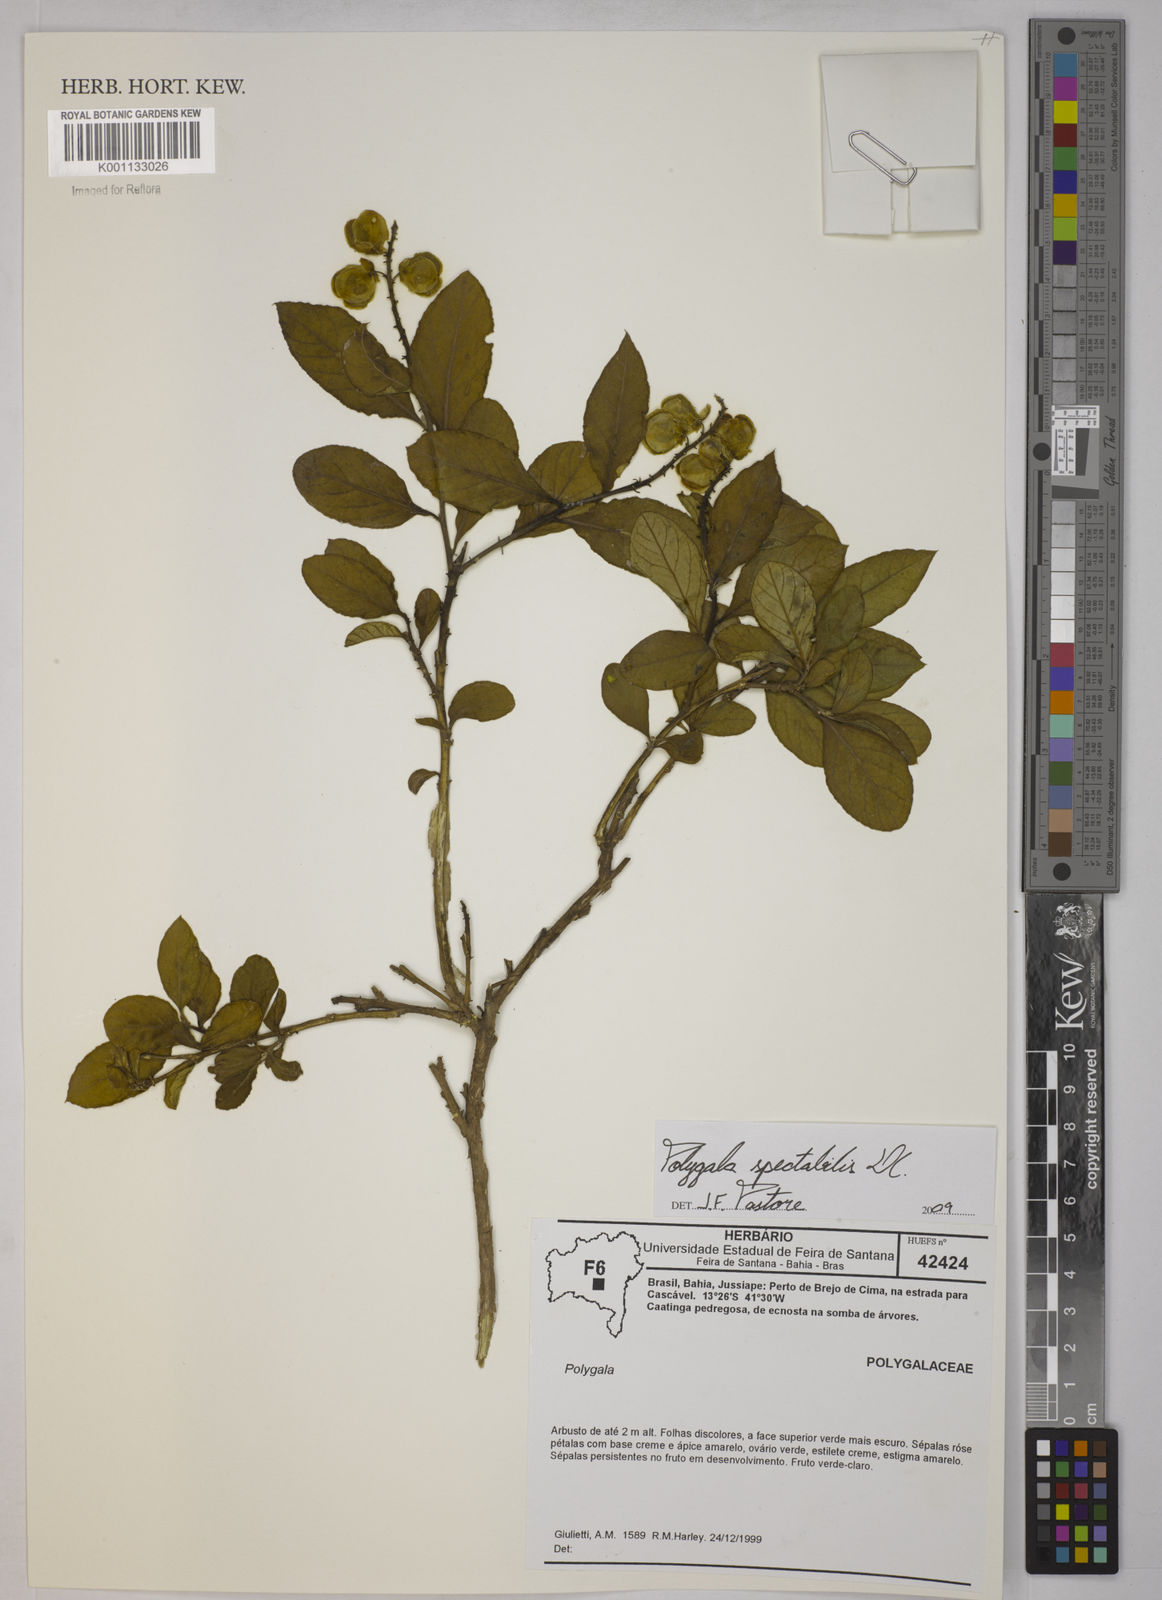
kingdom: Plantae
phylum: Tracheophyta
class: Magnoliopsida
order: Fabales
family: Polygalaceae
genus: Polygala
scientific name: Polygala
